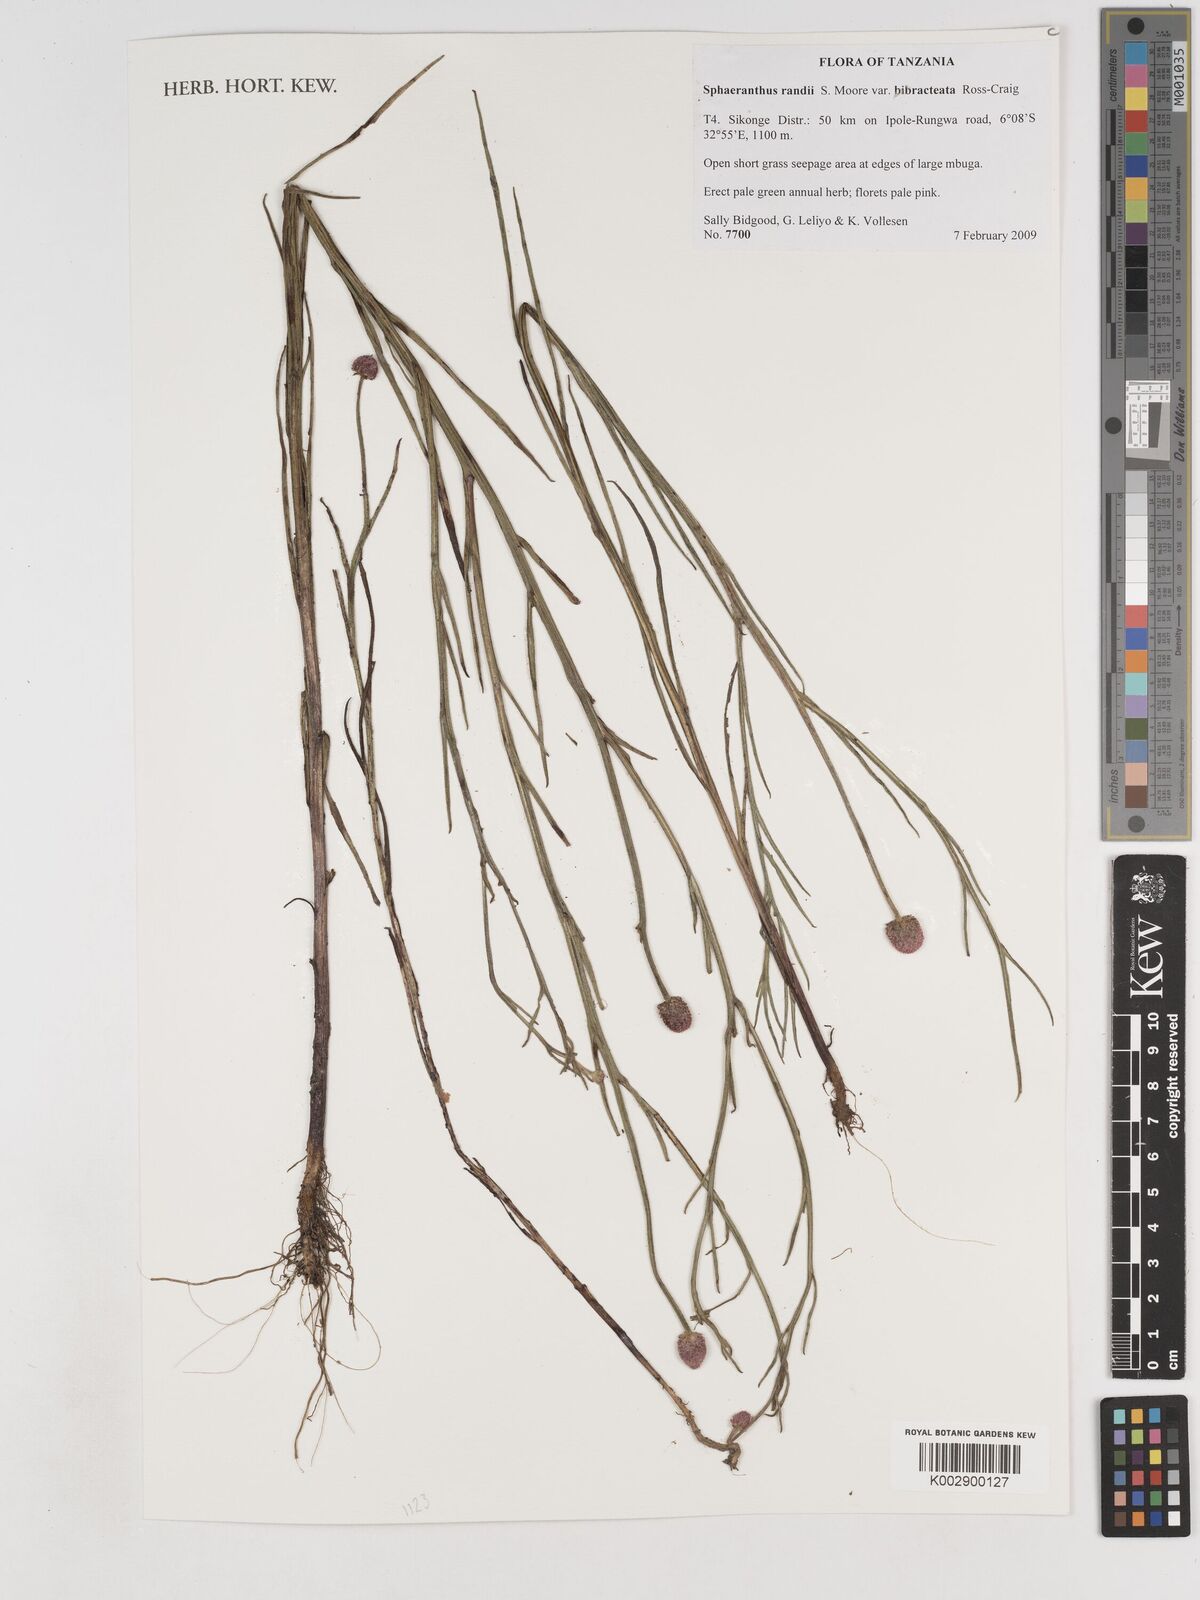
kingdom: Plantae
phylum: Tracheophyta
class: Magnoliopsida
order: Asterales
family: Asteraceae
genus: Sphaeranthus
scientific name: Sphaeranthus randii
